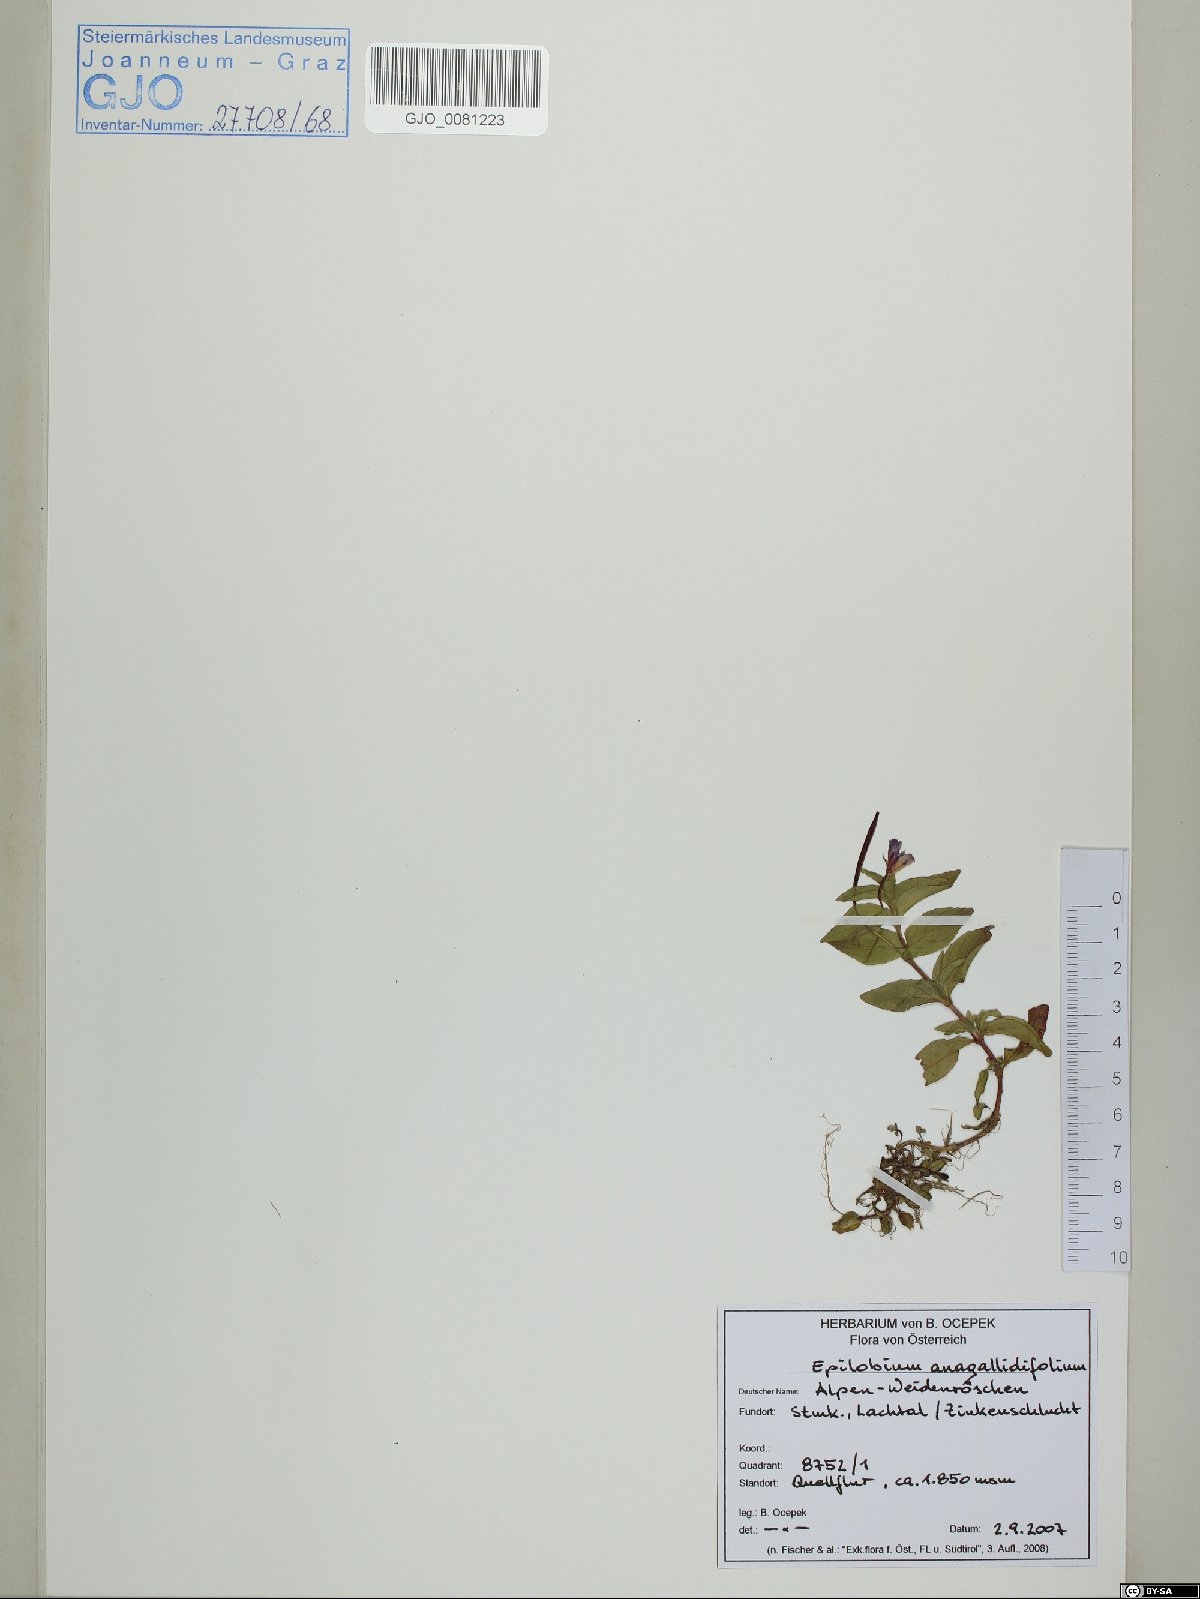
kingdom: Plantae
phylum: Tracheophyta
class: Magnoliopsida
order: Myrtales
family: Onagraceae
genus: Epilobium
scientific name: Epilobium anagallidifolium
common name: Alpine willowherb
